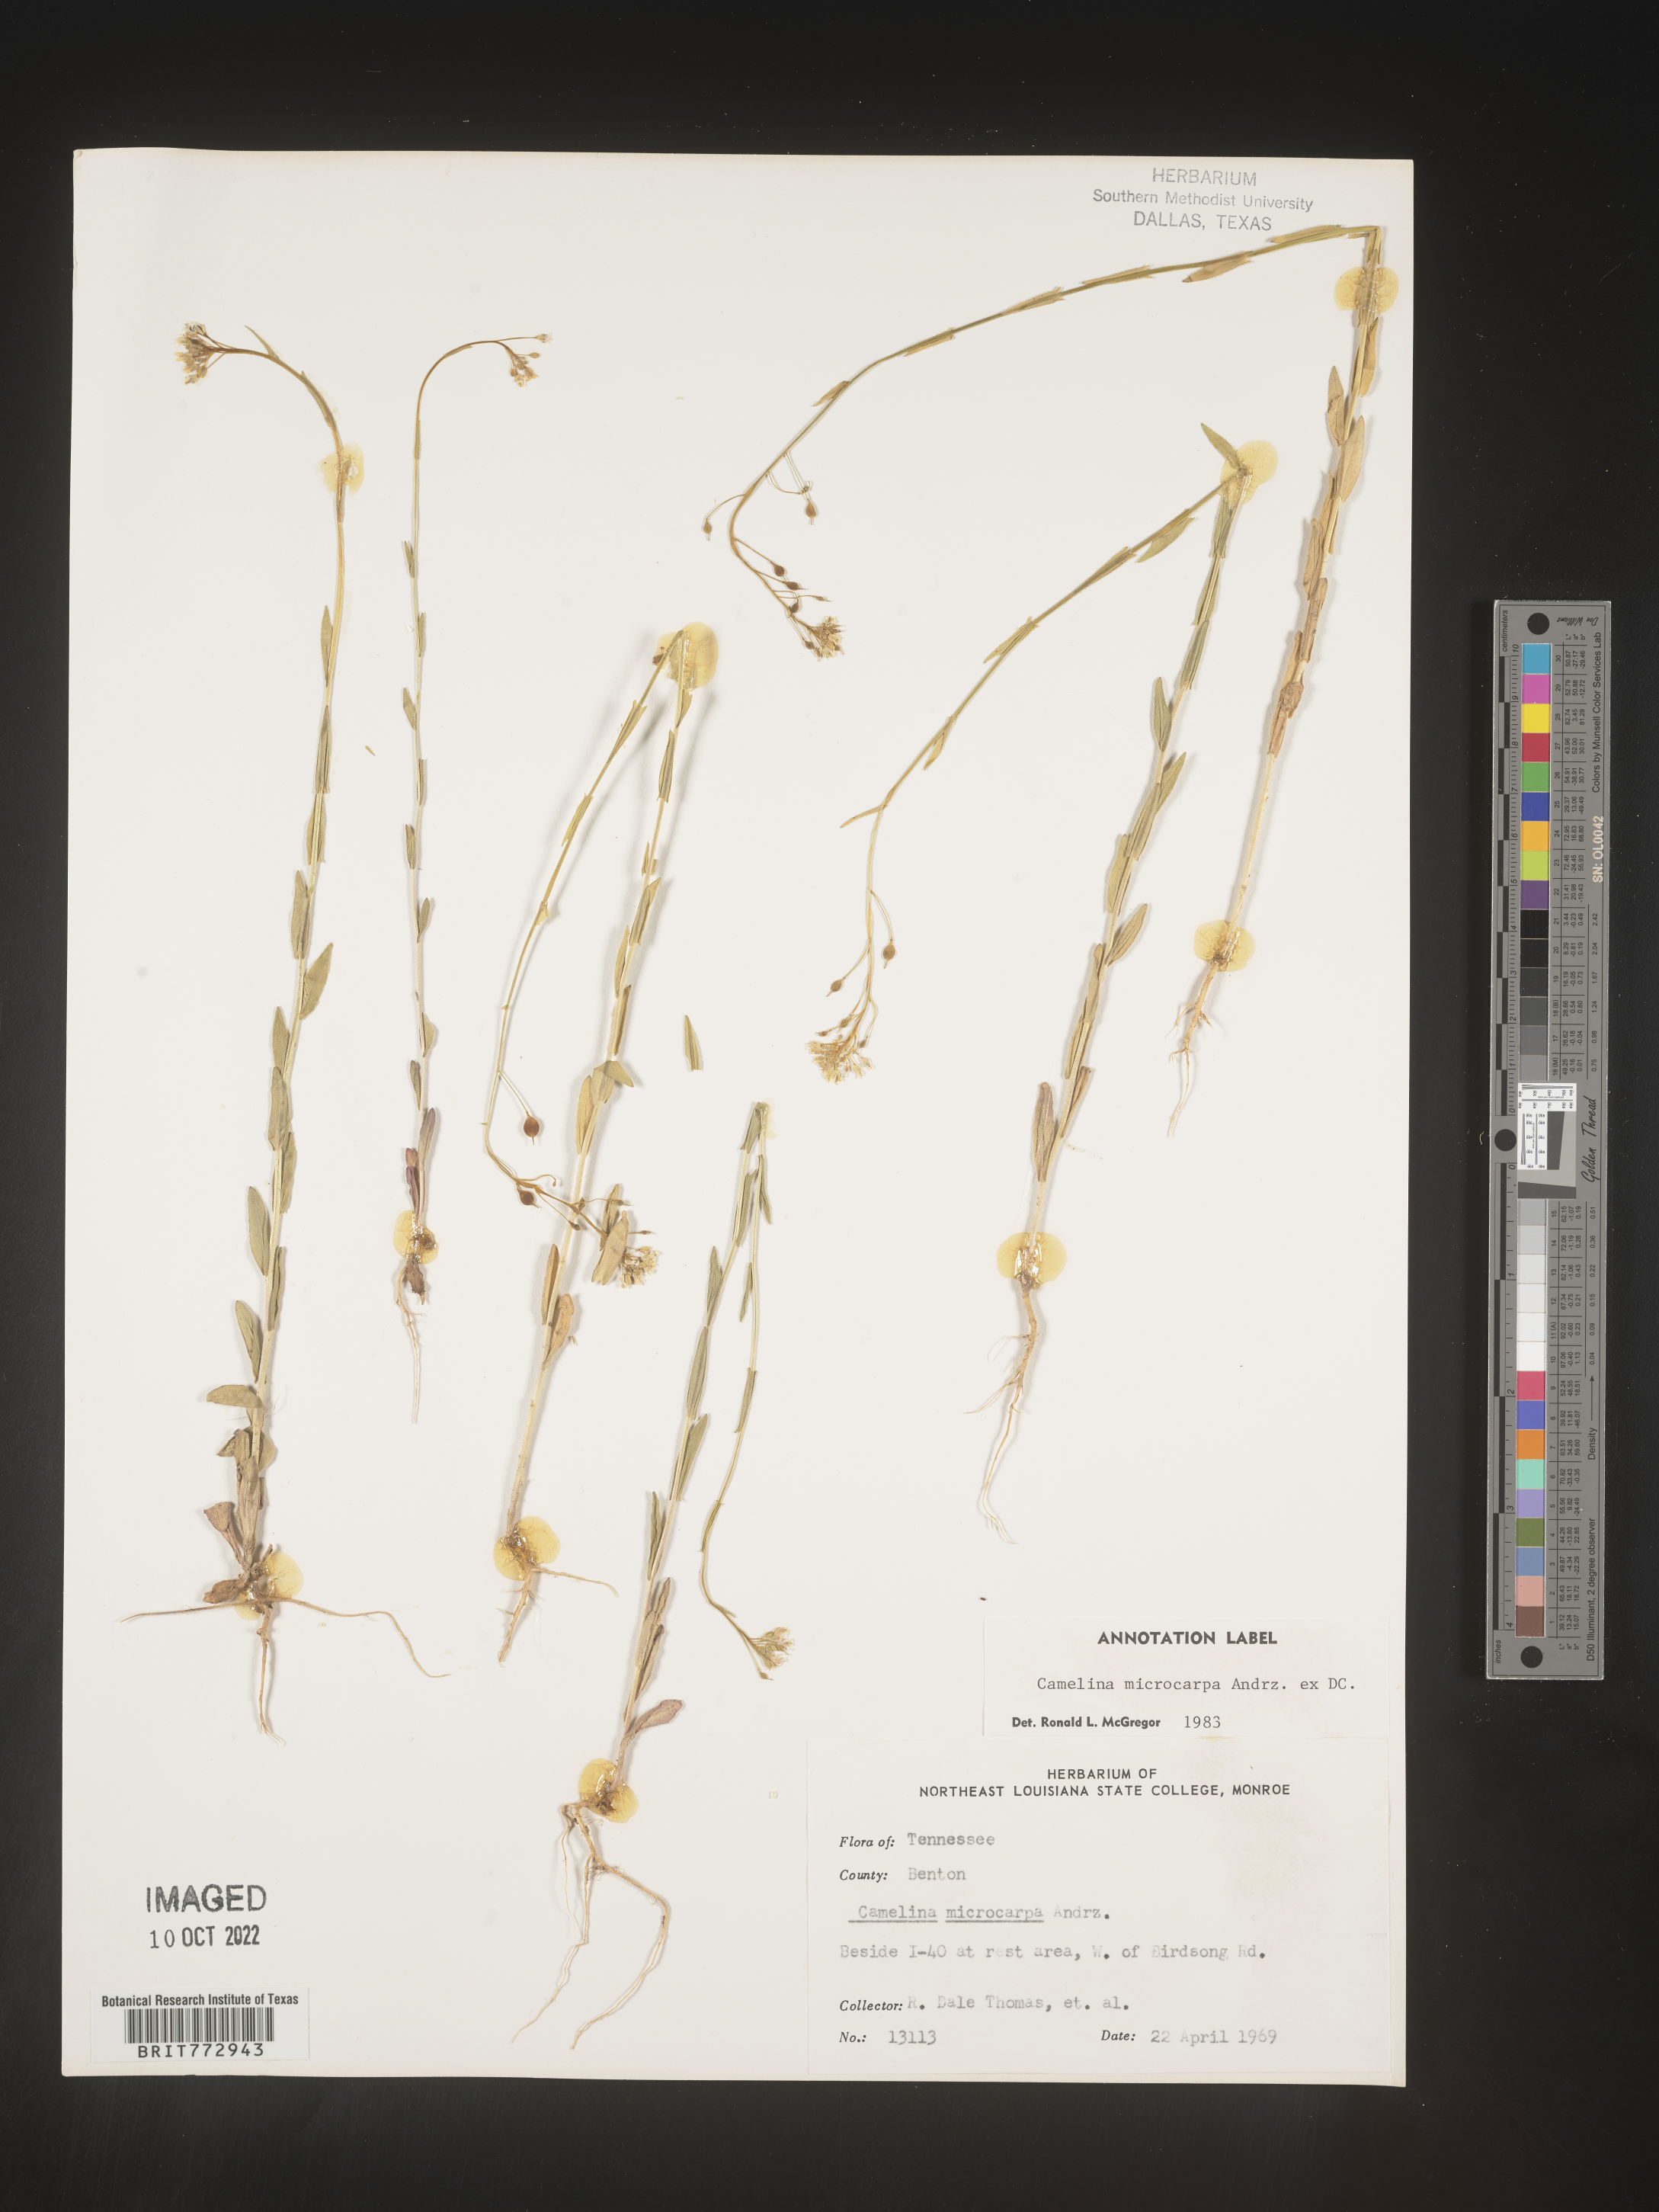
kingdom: Plantae
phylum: Tracheophyta
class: Magnoliopsida
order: Brassicales
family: Brassicaceae
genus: Camelina
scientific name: Camelina microcarpa
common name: Lesser gold-of-pleasure
